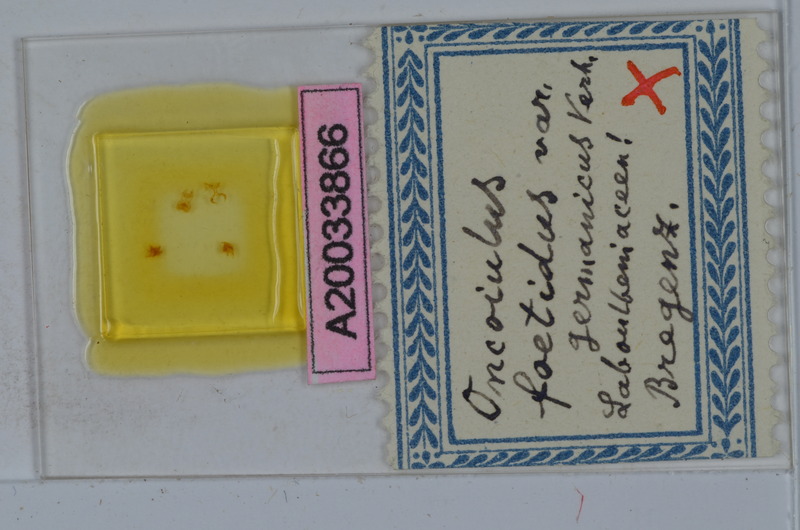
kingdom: Animalia
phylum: Arthropoda
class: Diplopoda
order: Julida
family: Julidae
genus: Unciger
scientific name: Unciger foetidus
